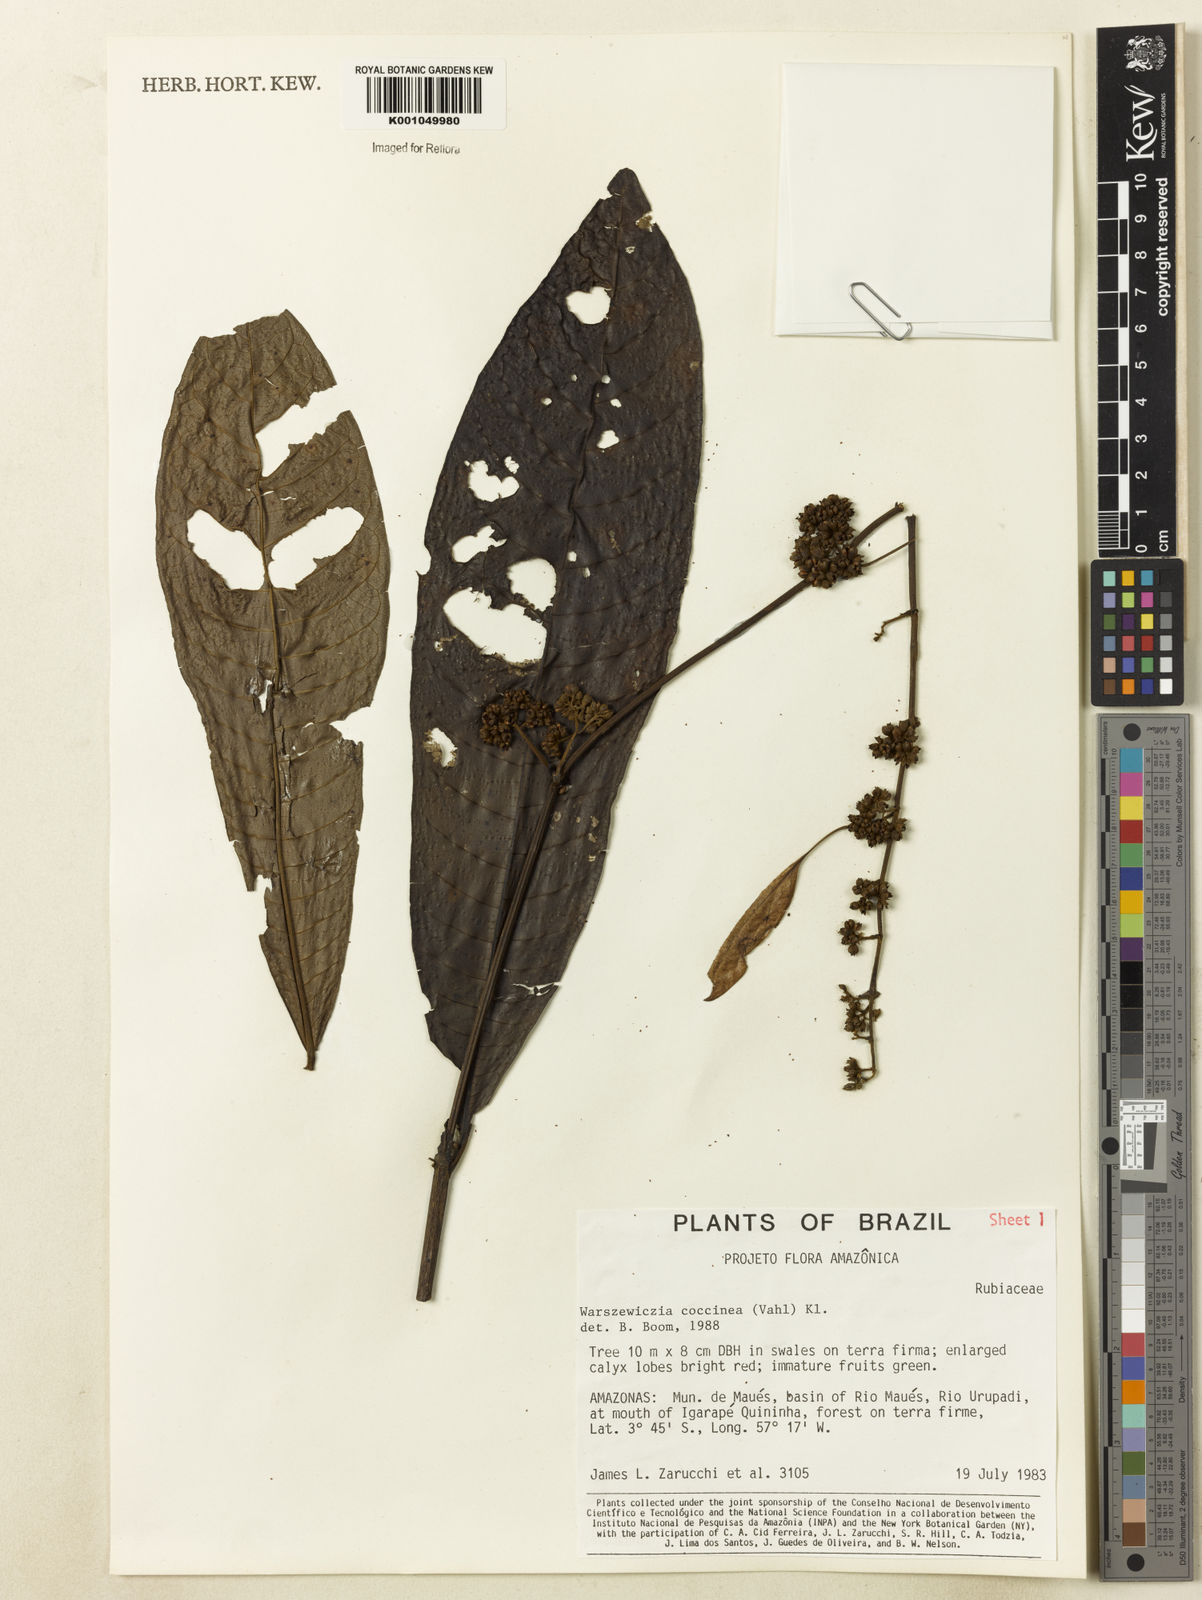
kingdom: Plantae
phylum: Tracheophyta
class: Magnoliopsida
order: Gentianales
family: Rubiaceae
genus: Warszewiczia
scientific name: Warszewiczia coccinea
